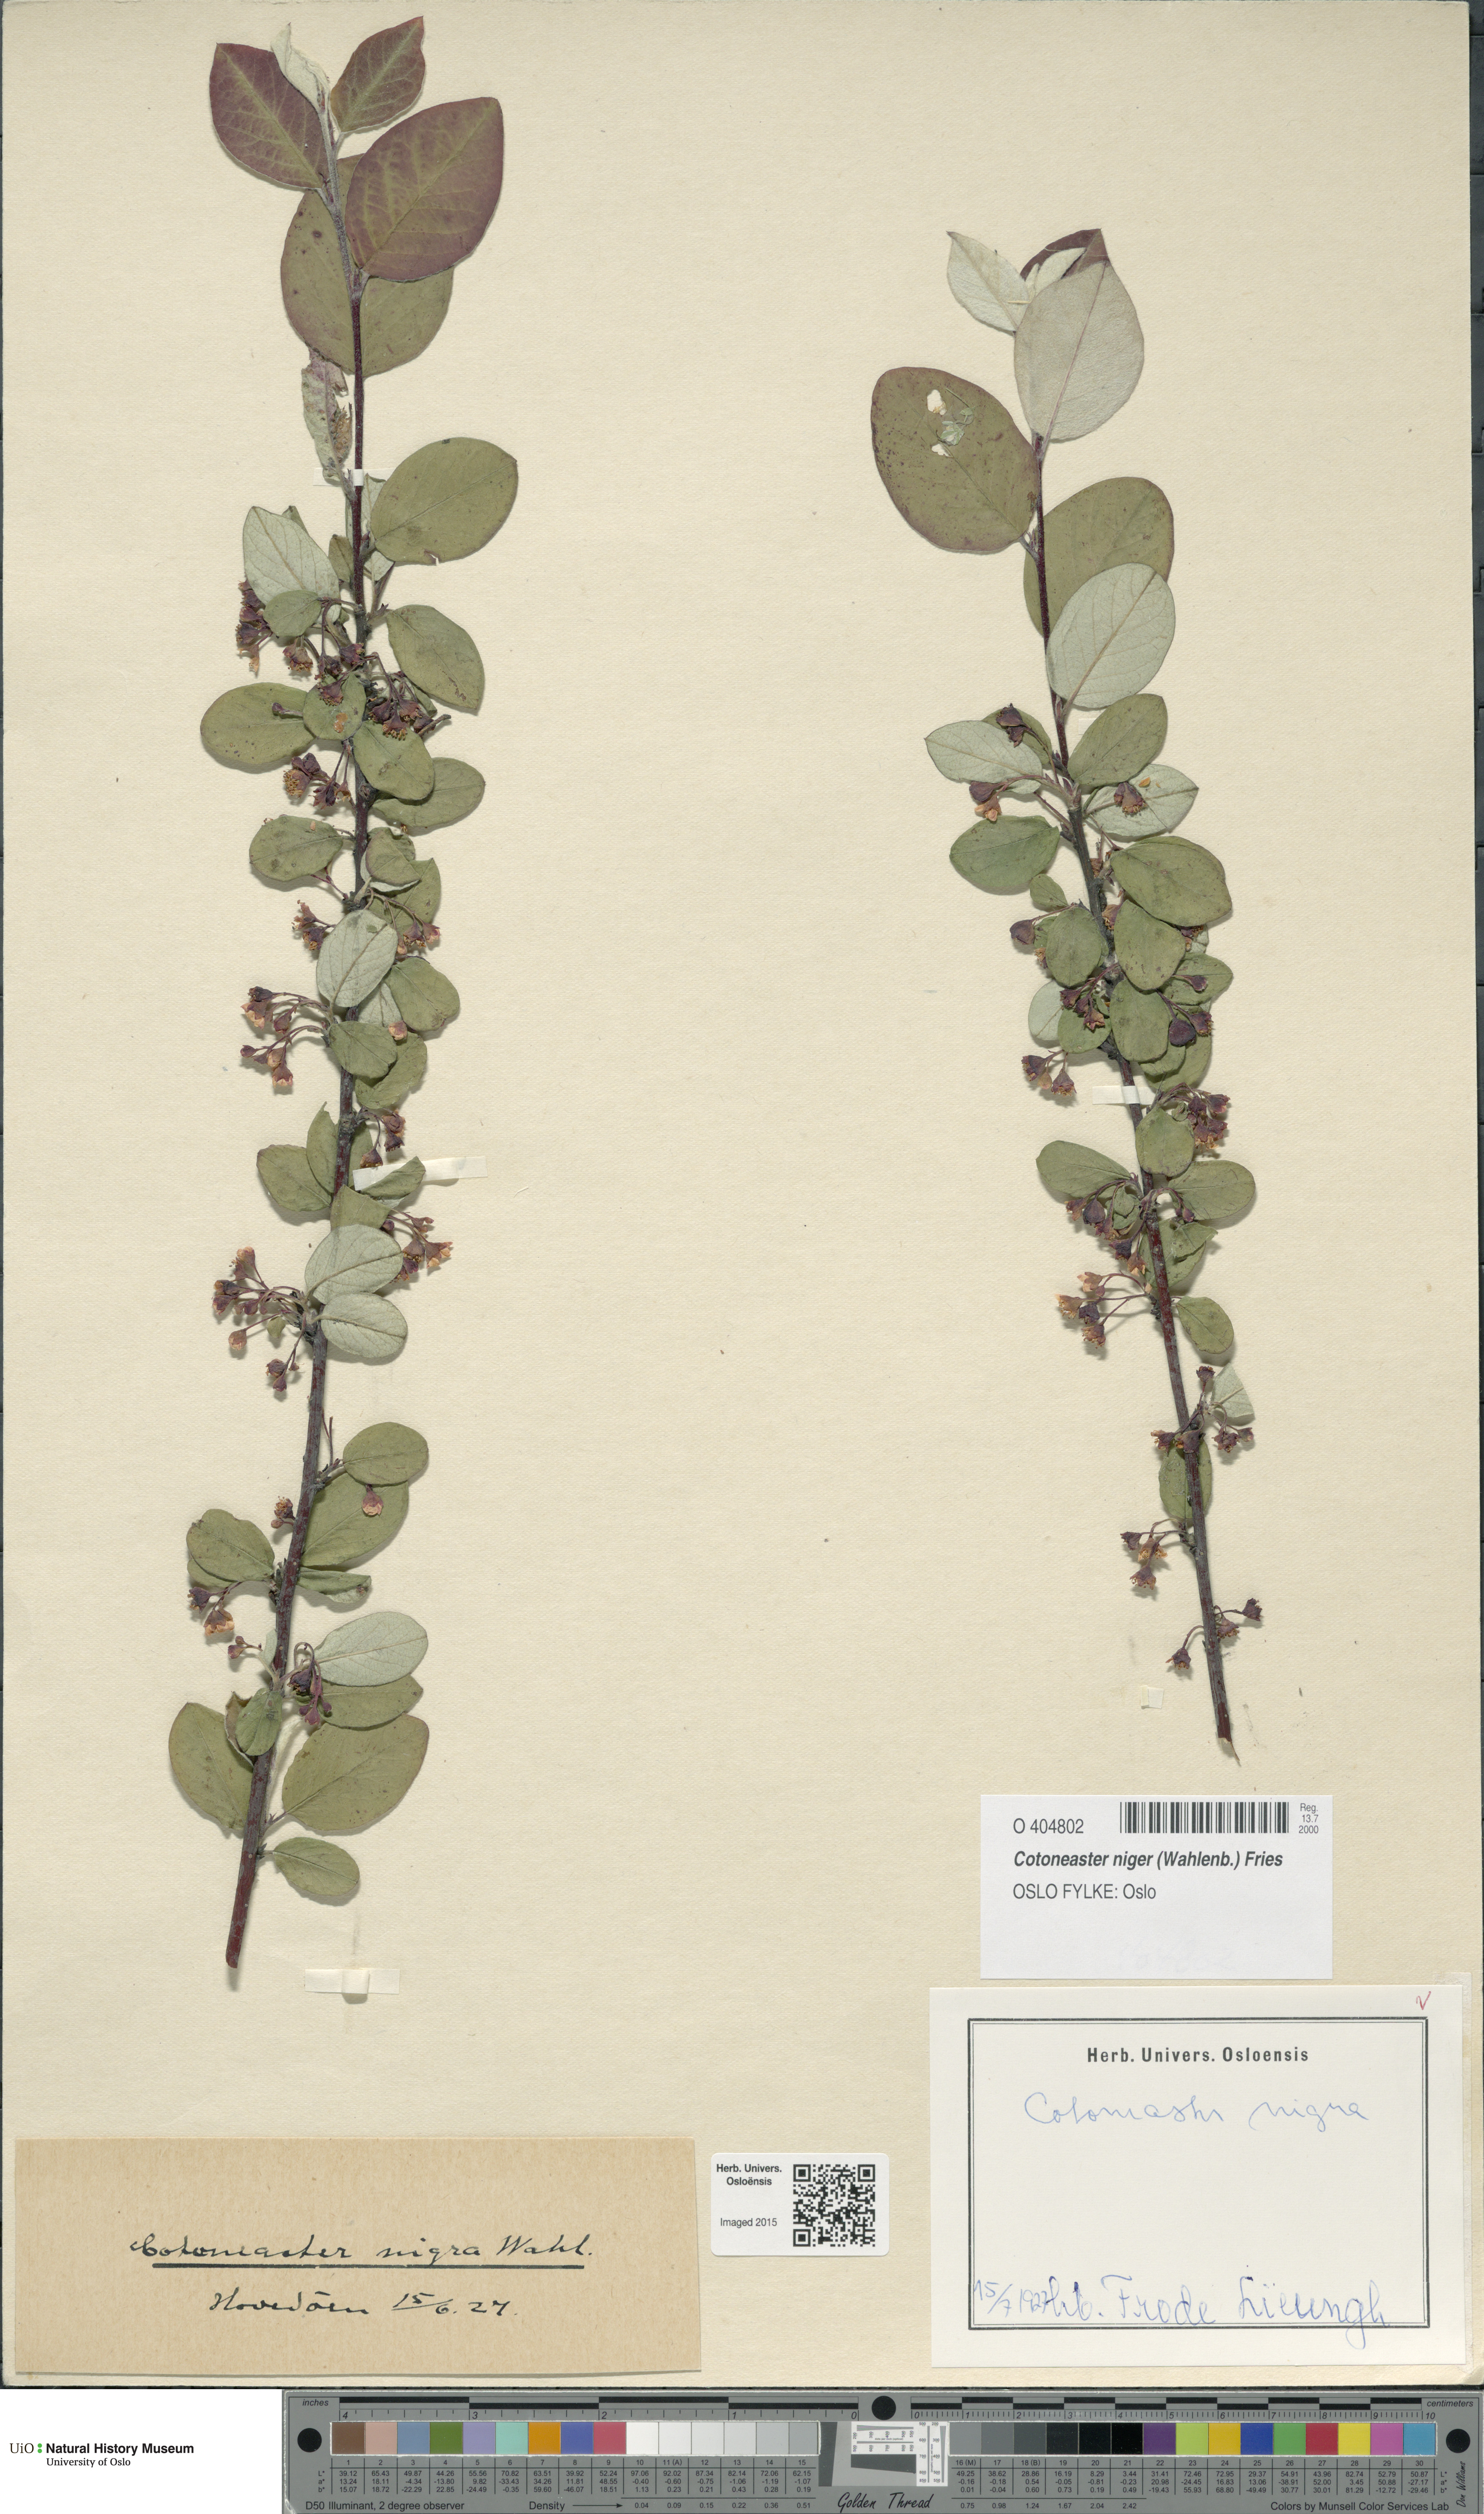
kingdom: Plantae
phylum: Tracheophyta
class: Magnoliopsida
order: Rosales
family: Rosaceae
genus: Cotoneaster
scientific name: Cotoneaster niger
